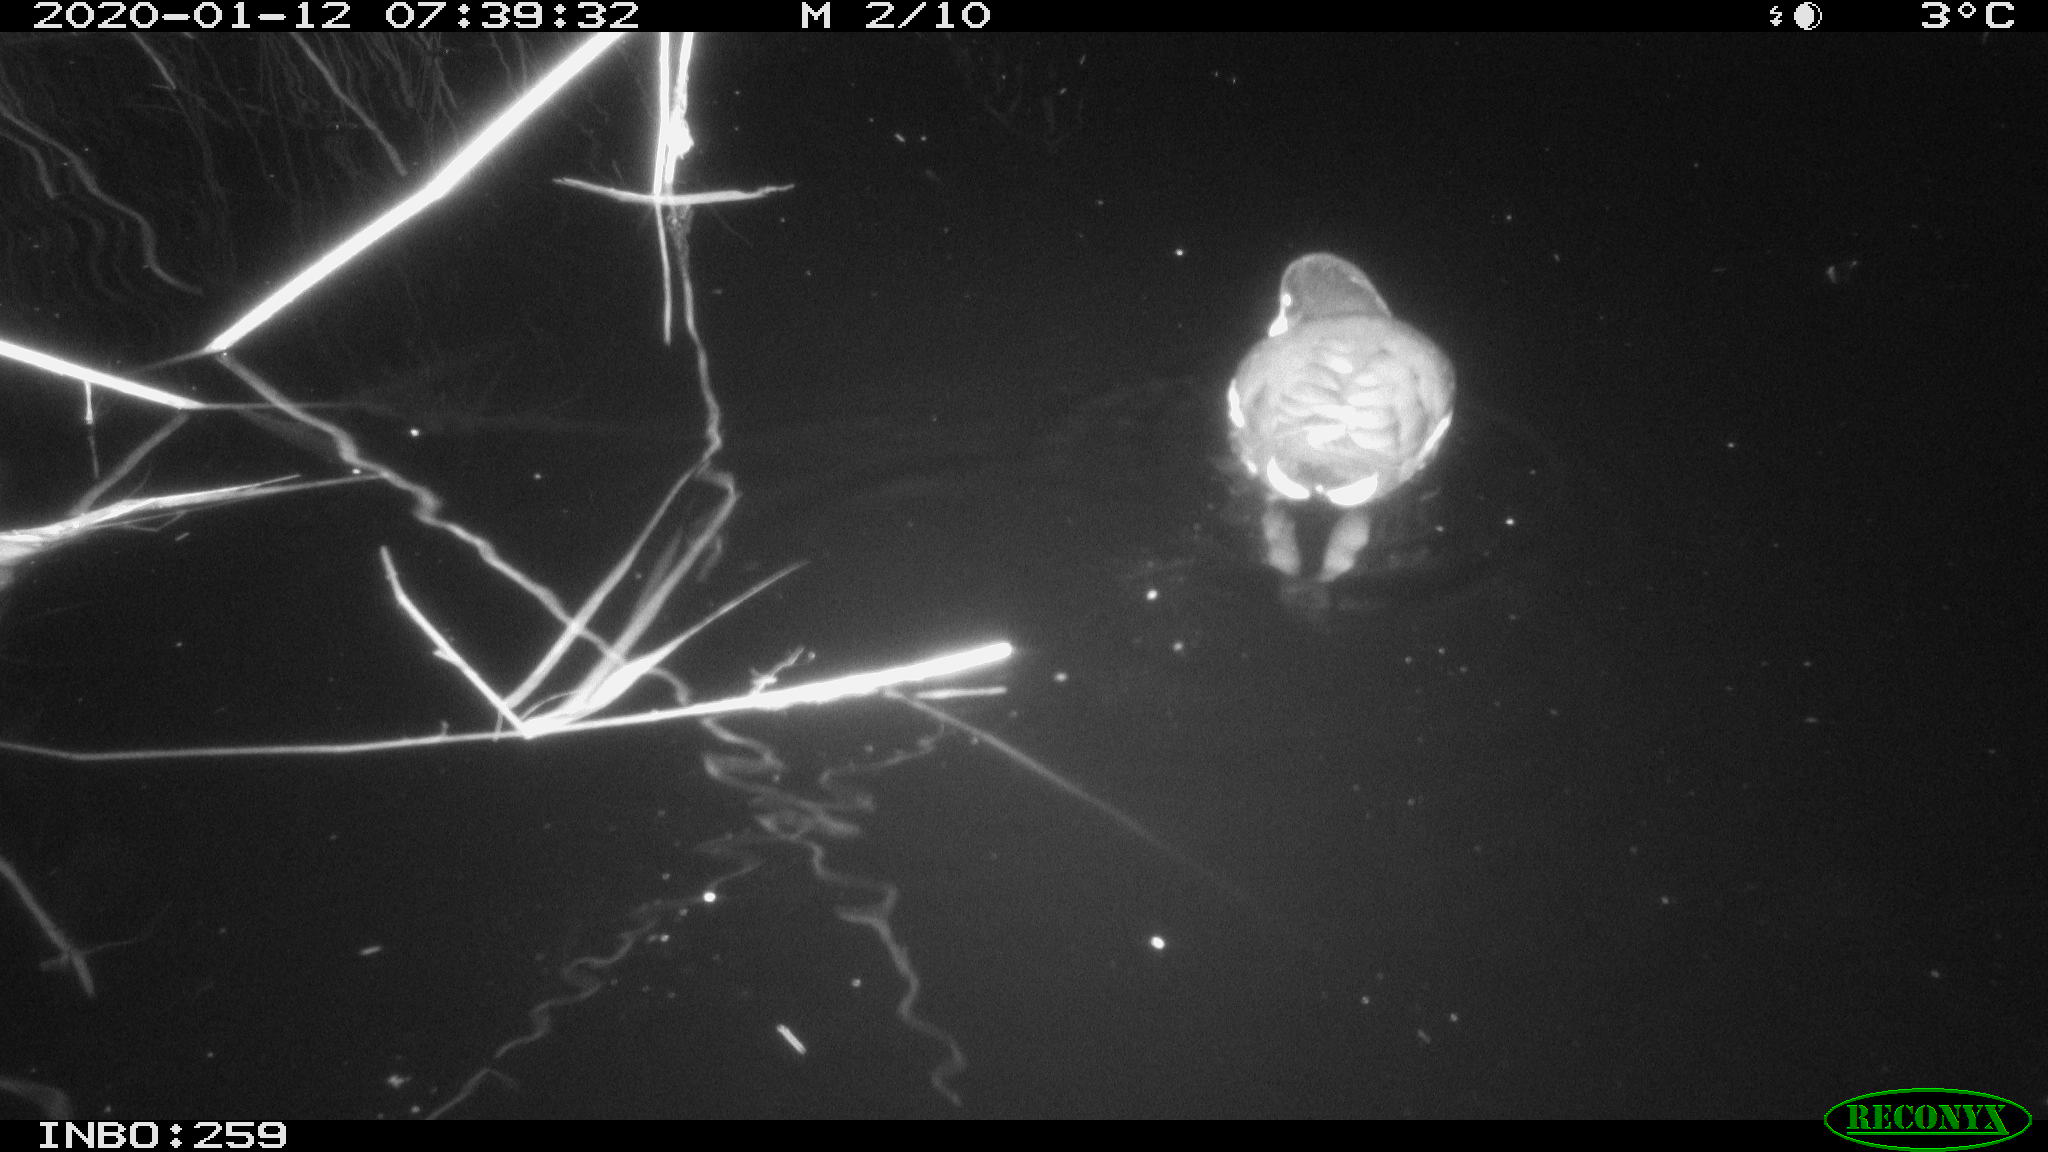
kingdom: Animalia
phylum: Chordata
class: Aves
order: Gruiformes
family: Rallidae
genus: Gallinula
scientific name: Gallinula chloropus
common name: Common moorhen
